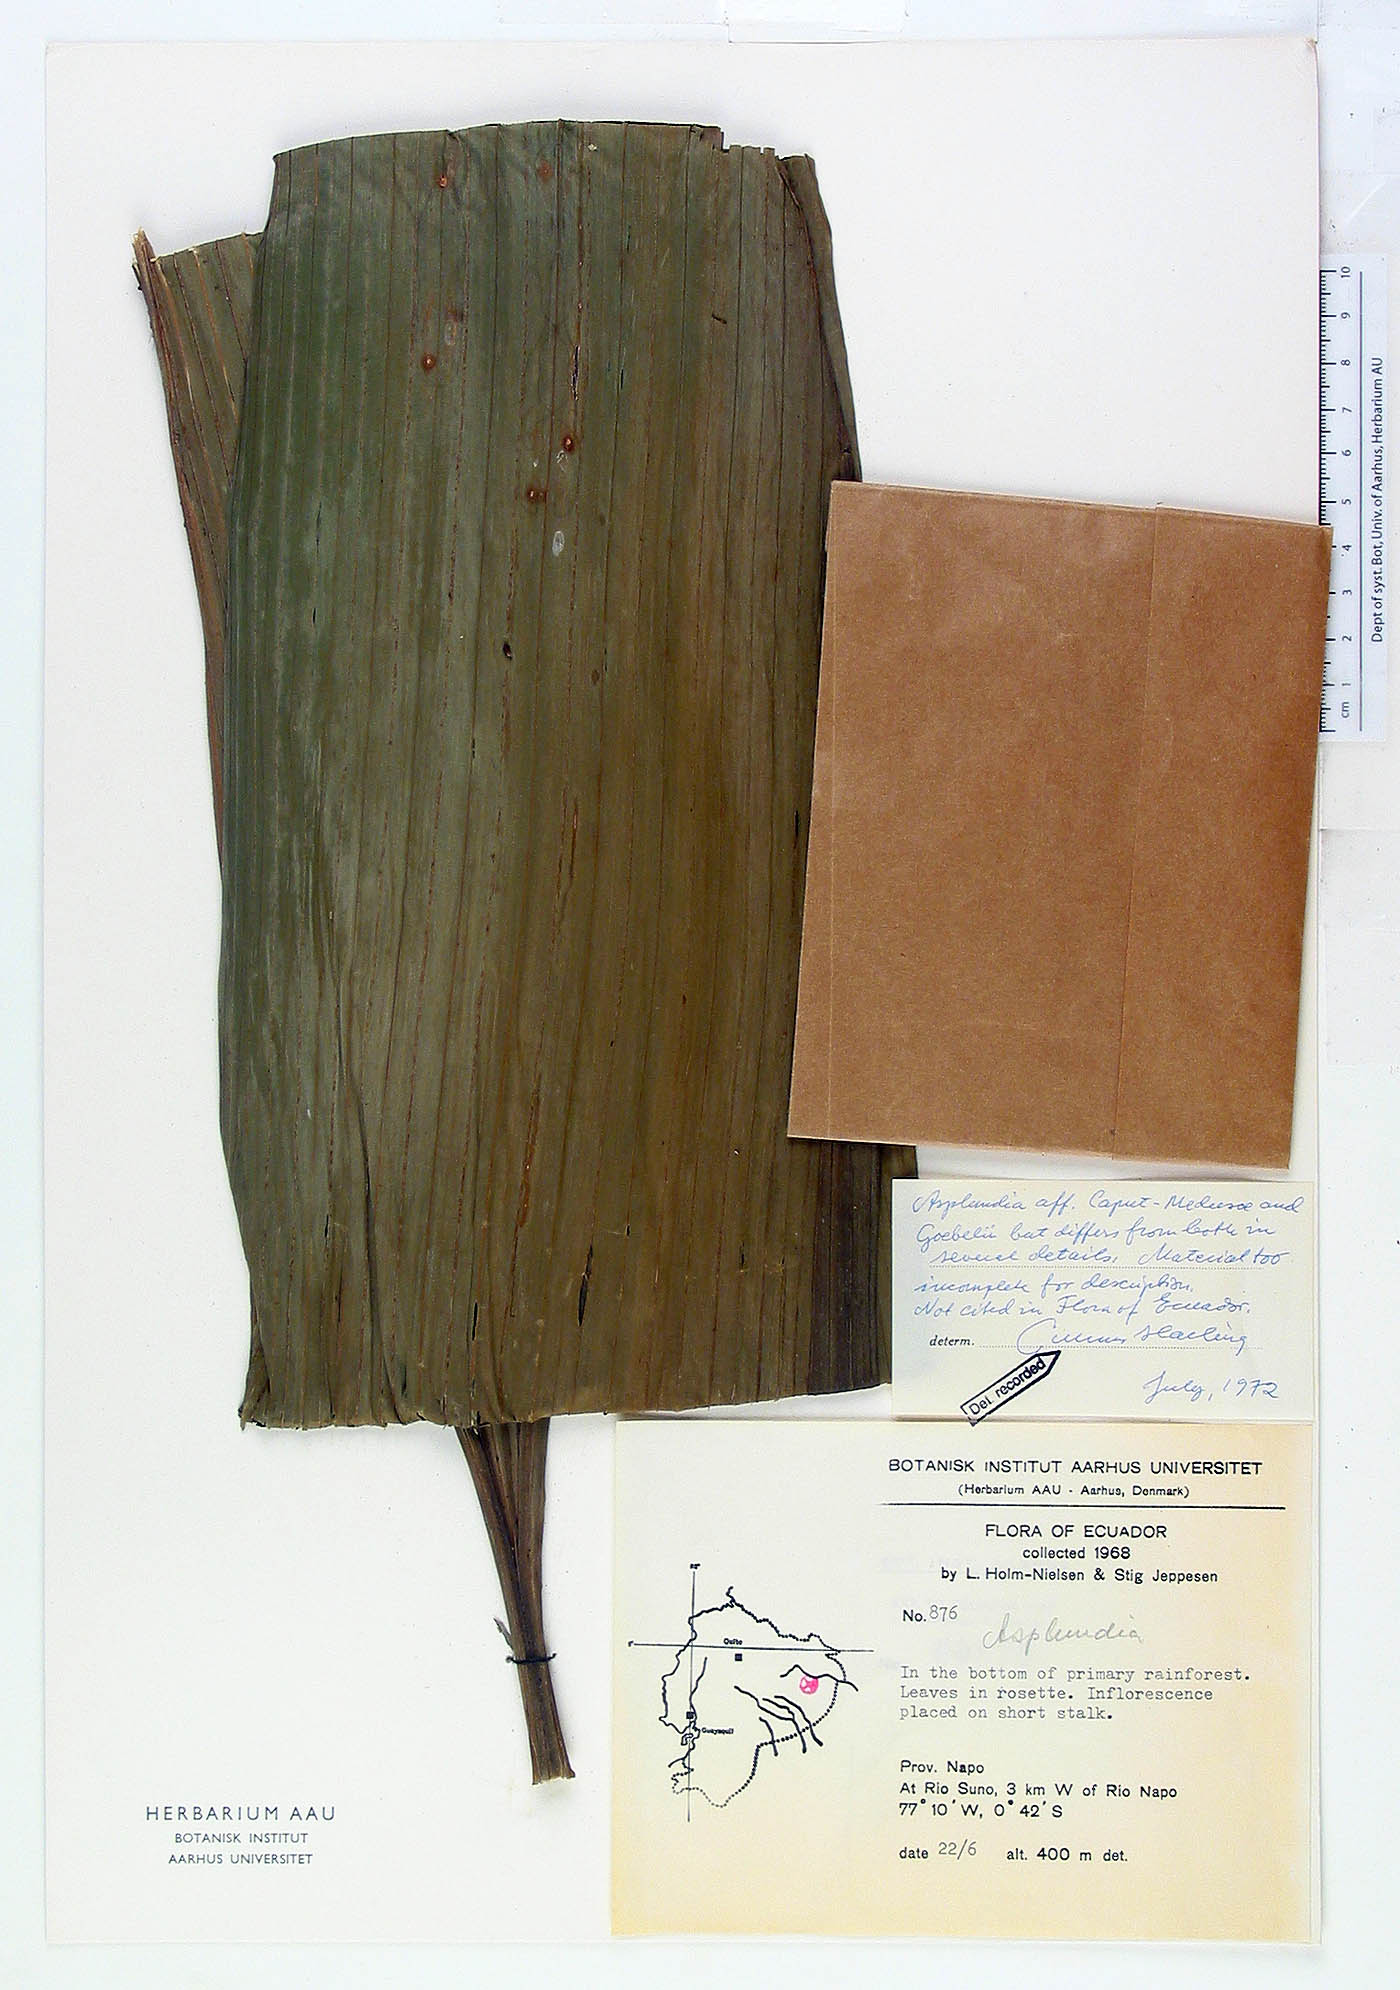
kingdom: Plantae
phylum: Tracheophyta
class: Liliopsida
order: Pandanales
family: Cyclanthaceae
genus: Asplundia
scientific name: Asplundia
